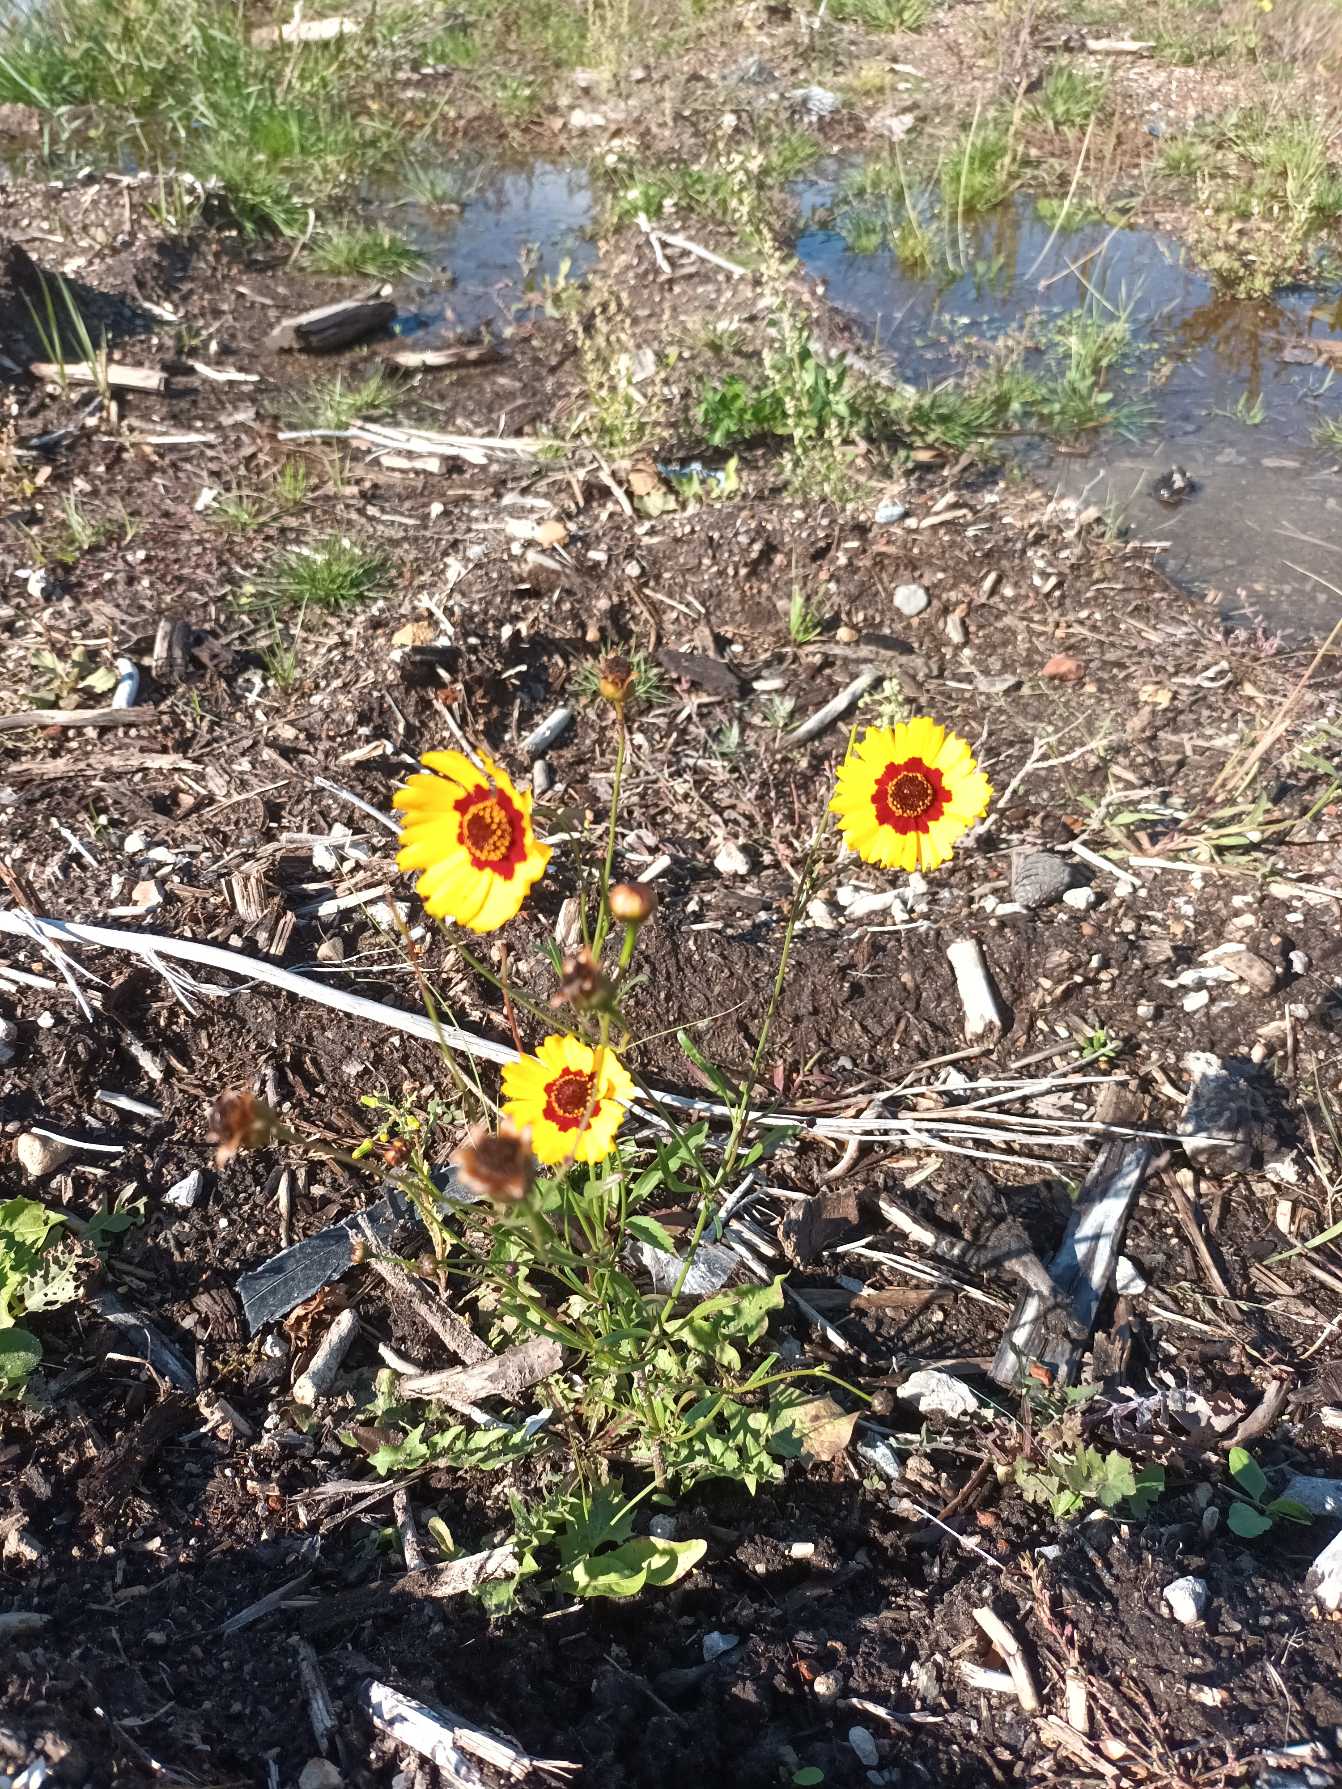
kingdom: Plantae
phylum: Tracheophyta
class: Magnoliopsida
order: Asterales
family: Asteraceae
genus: Coreopsis
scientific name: Coreopsis tinctoria
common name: Skønhedsøje
